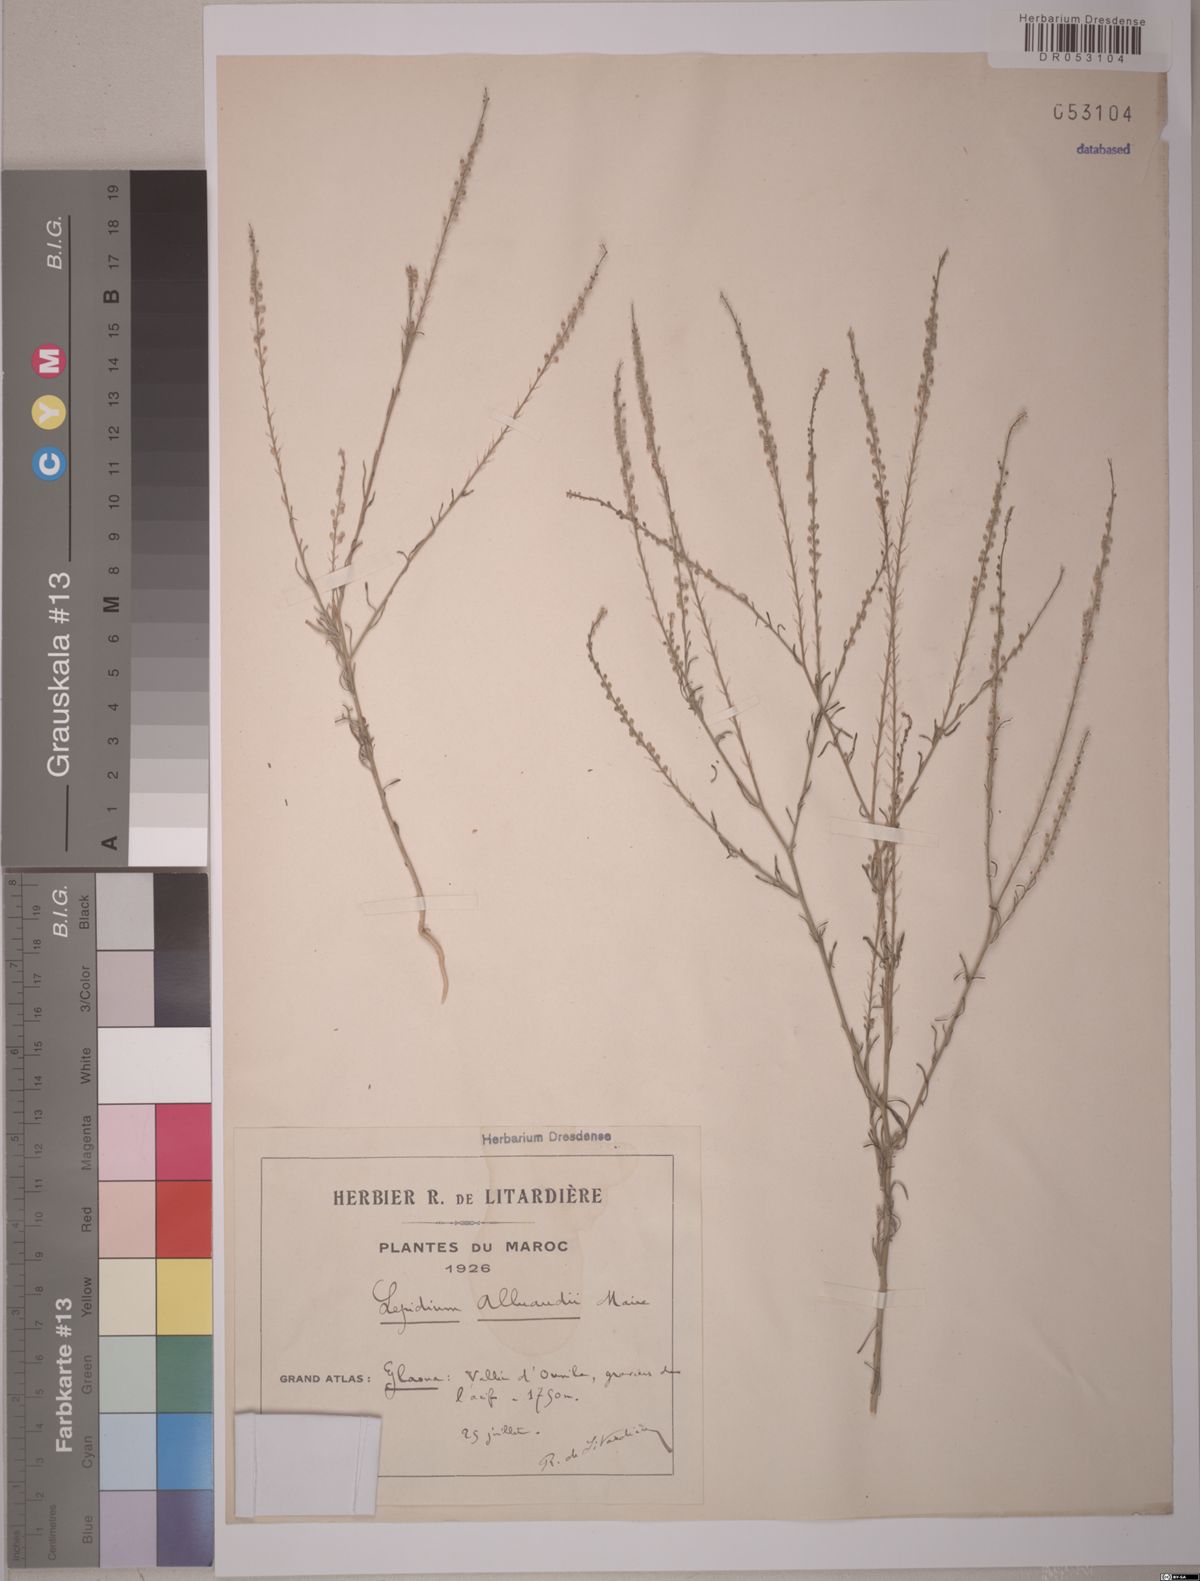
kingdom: Plantae
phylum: Tracheophyta
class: Magnoliopsida
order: Brassicales
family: Brassicaceae
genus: Lepidium
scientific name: Lepidium alluaudii
